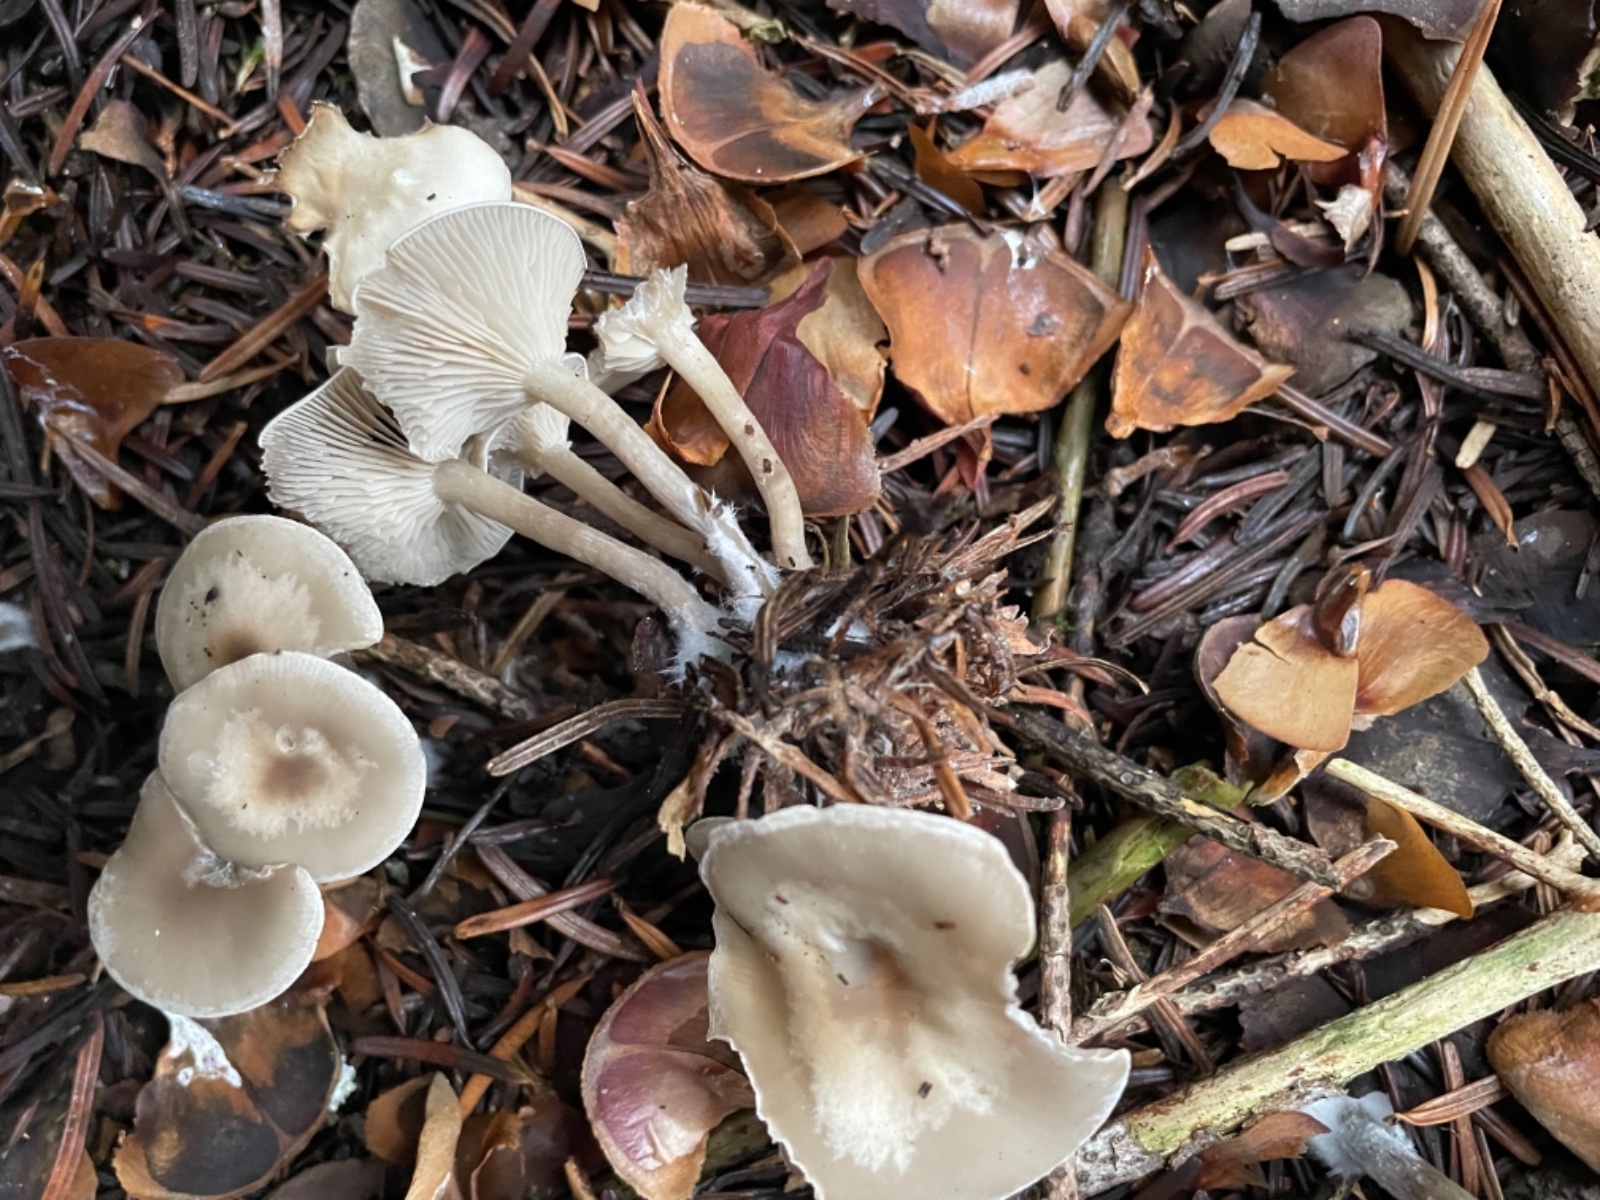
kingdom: Fungi
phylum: Basidiomycota
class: Agaricomycetes
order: Agaricales
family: Tricholomataceae
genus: Clitocybe
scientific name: Clitocybe
